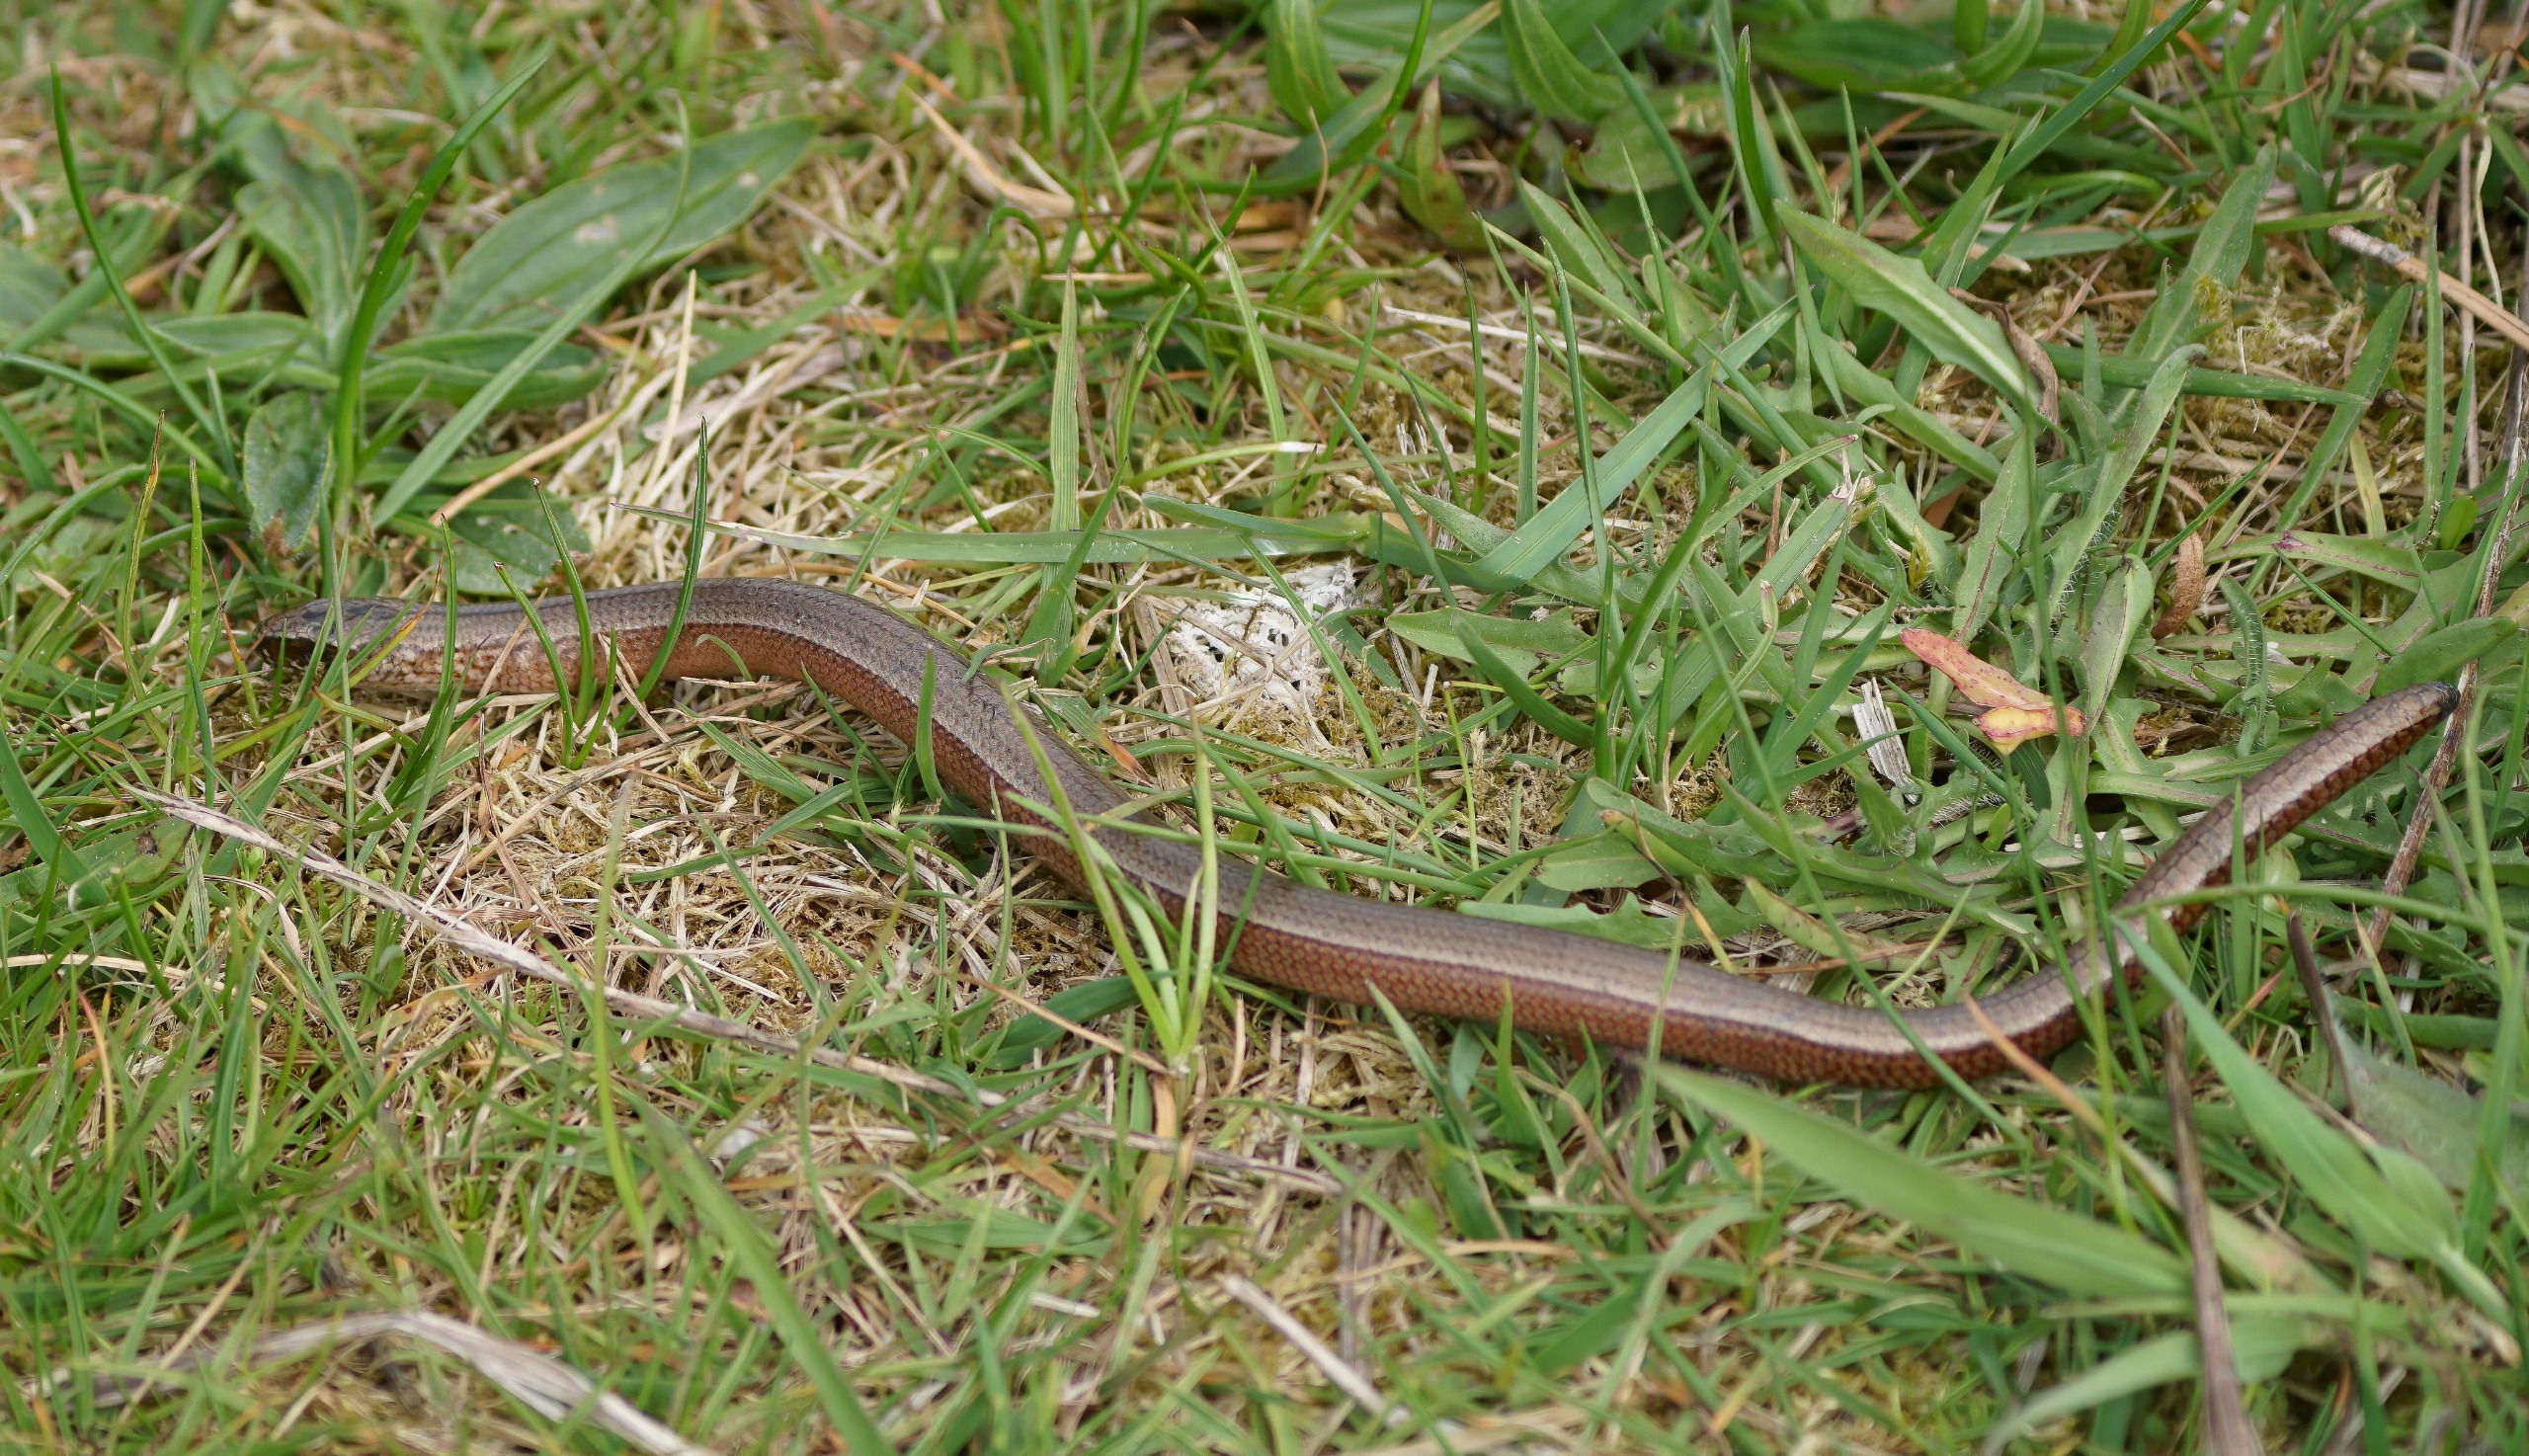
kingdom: Animalia
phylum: Chordata
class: Squamata
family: Anguidae
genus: Anguis
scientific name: Anguis fragilis
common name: Stålorm
